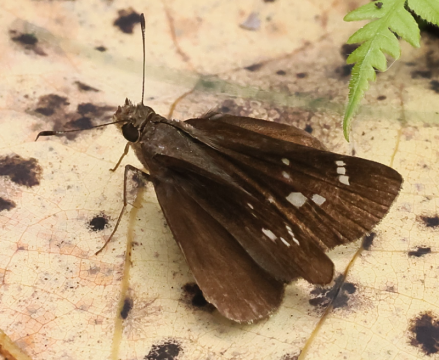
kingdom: Animalia
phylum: Arthropoda
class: Insecta
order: Lepidoptera
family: Hesperiidae
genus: Lerema
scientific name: Lerema accius
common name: Clouded Skipper
